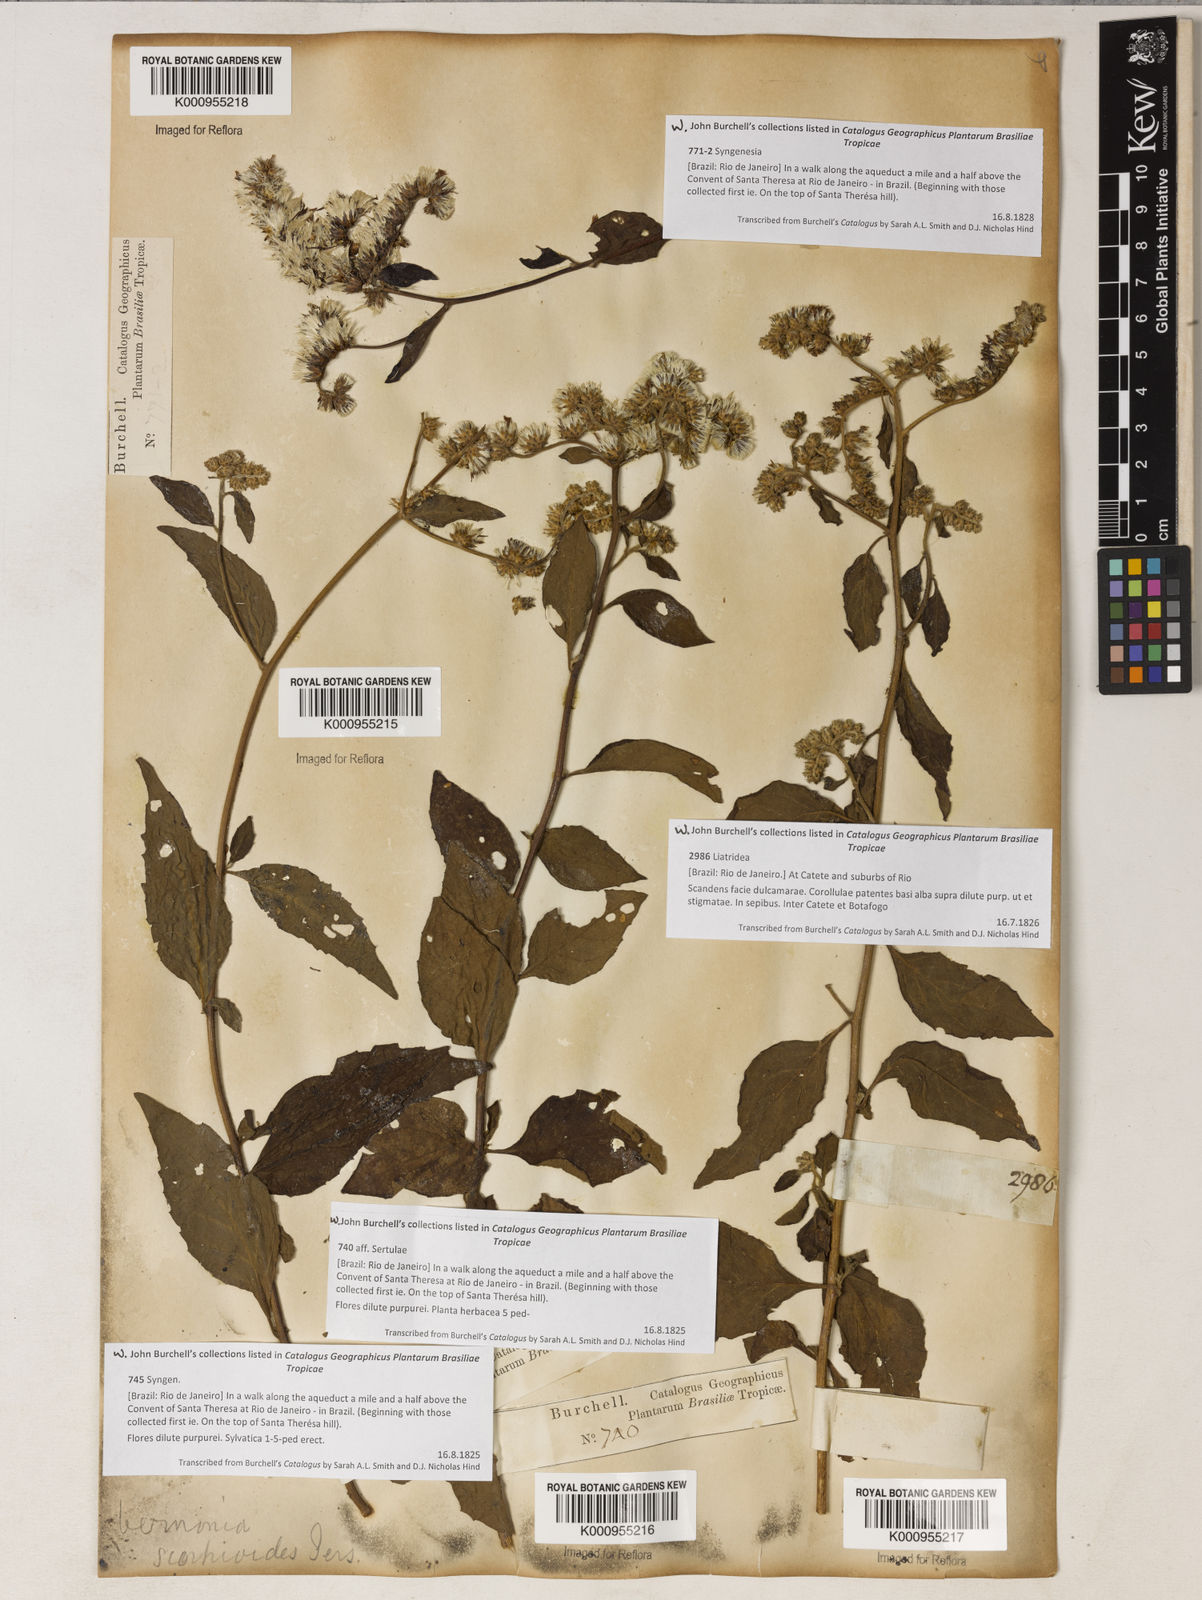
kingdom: Plantae
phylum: Tracheophyta
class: Magnoliopsida
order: Asterales
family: Asteraceae
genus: Cyrtocymura
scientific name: Cyrtocymura scorpioides
